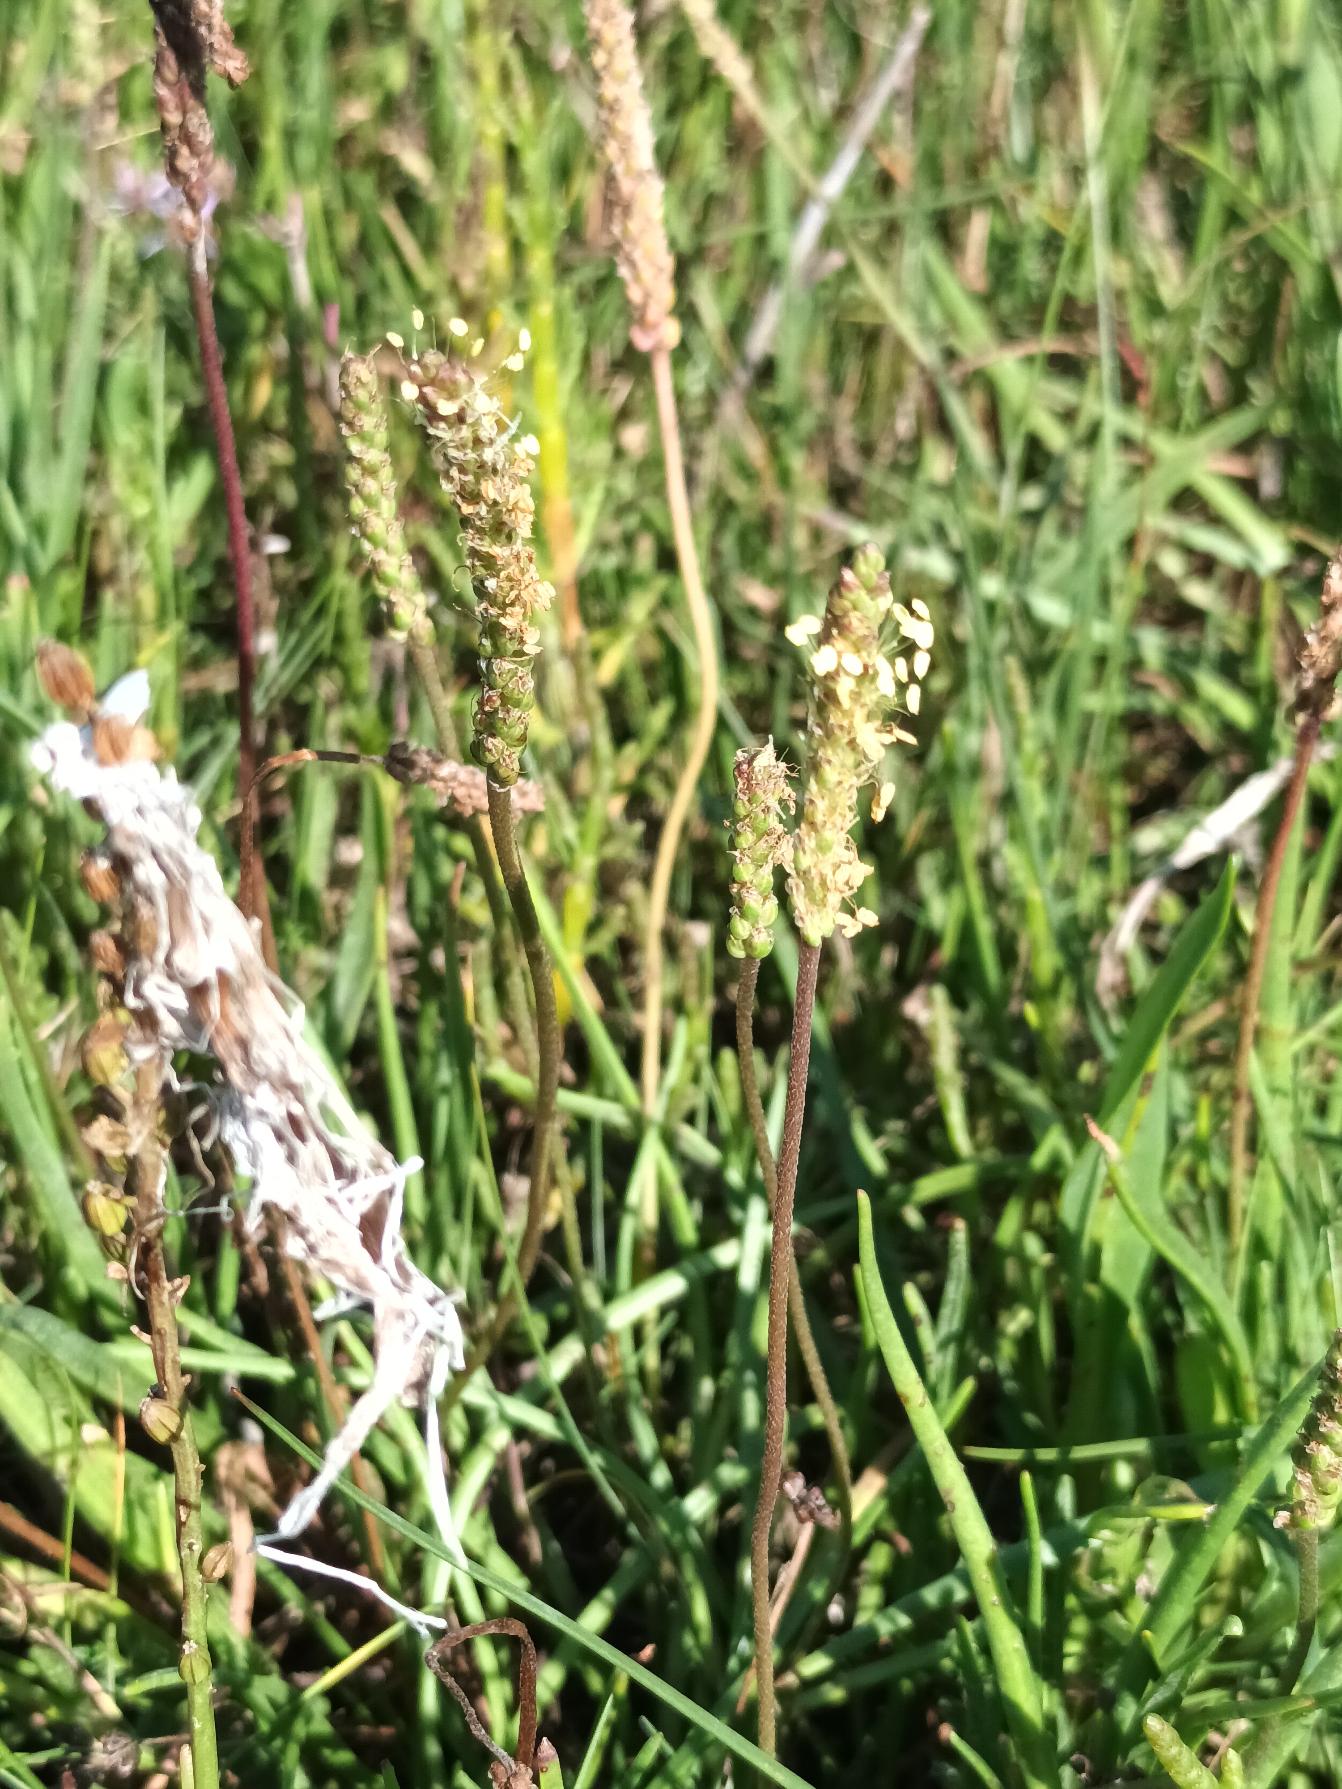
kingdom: Plantae
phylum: Tracheophyta
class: Magnoliopsida
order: Lamiales
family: Plantaginaceae
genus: Plantago
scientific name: Plantago maritima
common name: Strand-vejbred
